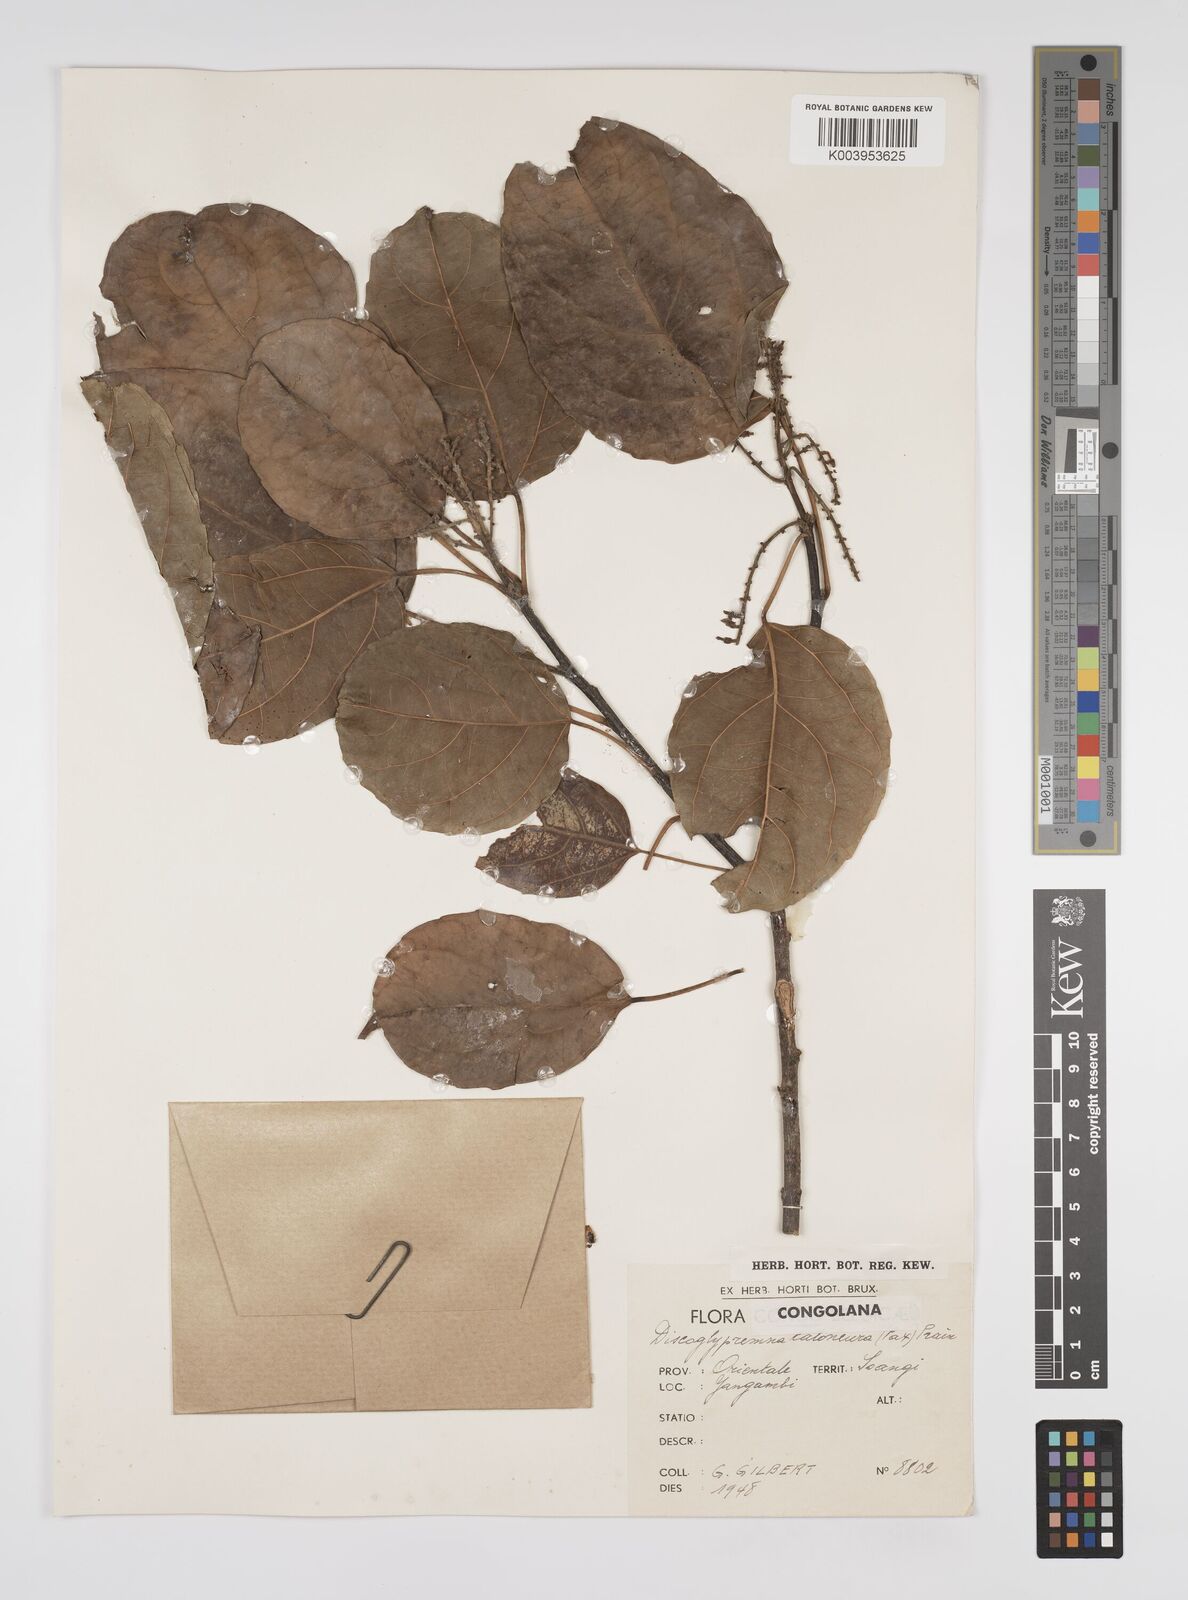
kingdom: Plantae
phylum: Tracheophyta
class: Magnoliopsida
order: Malpighiales
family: Euphorbiaceae
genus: Discoglypremna
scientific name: Discoglypremna caloneura
